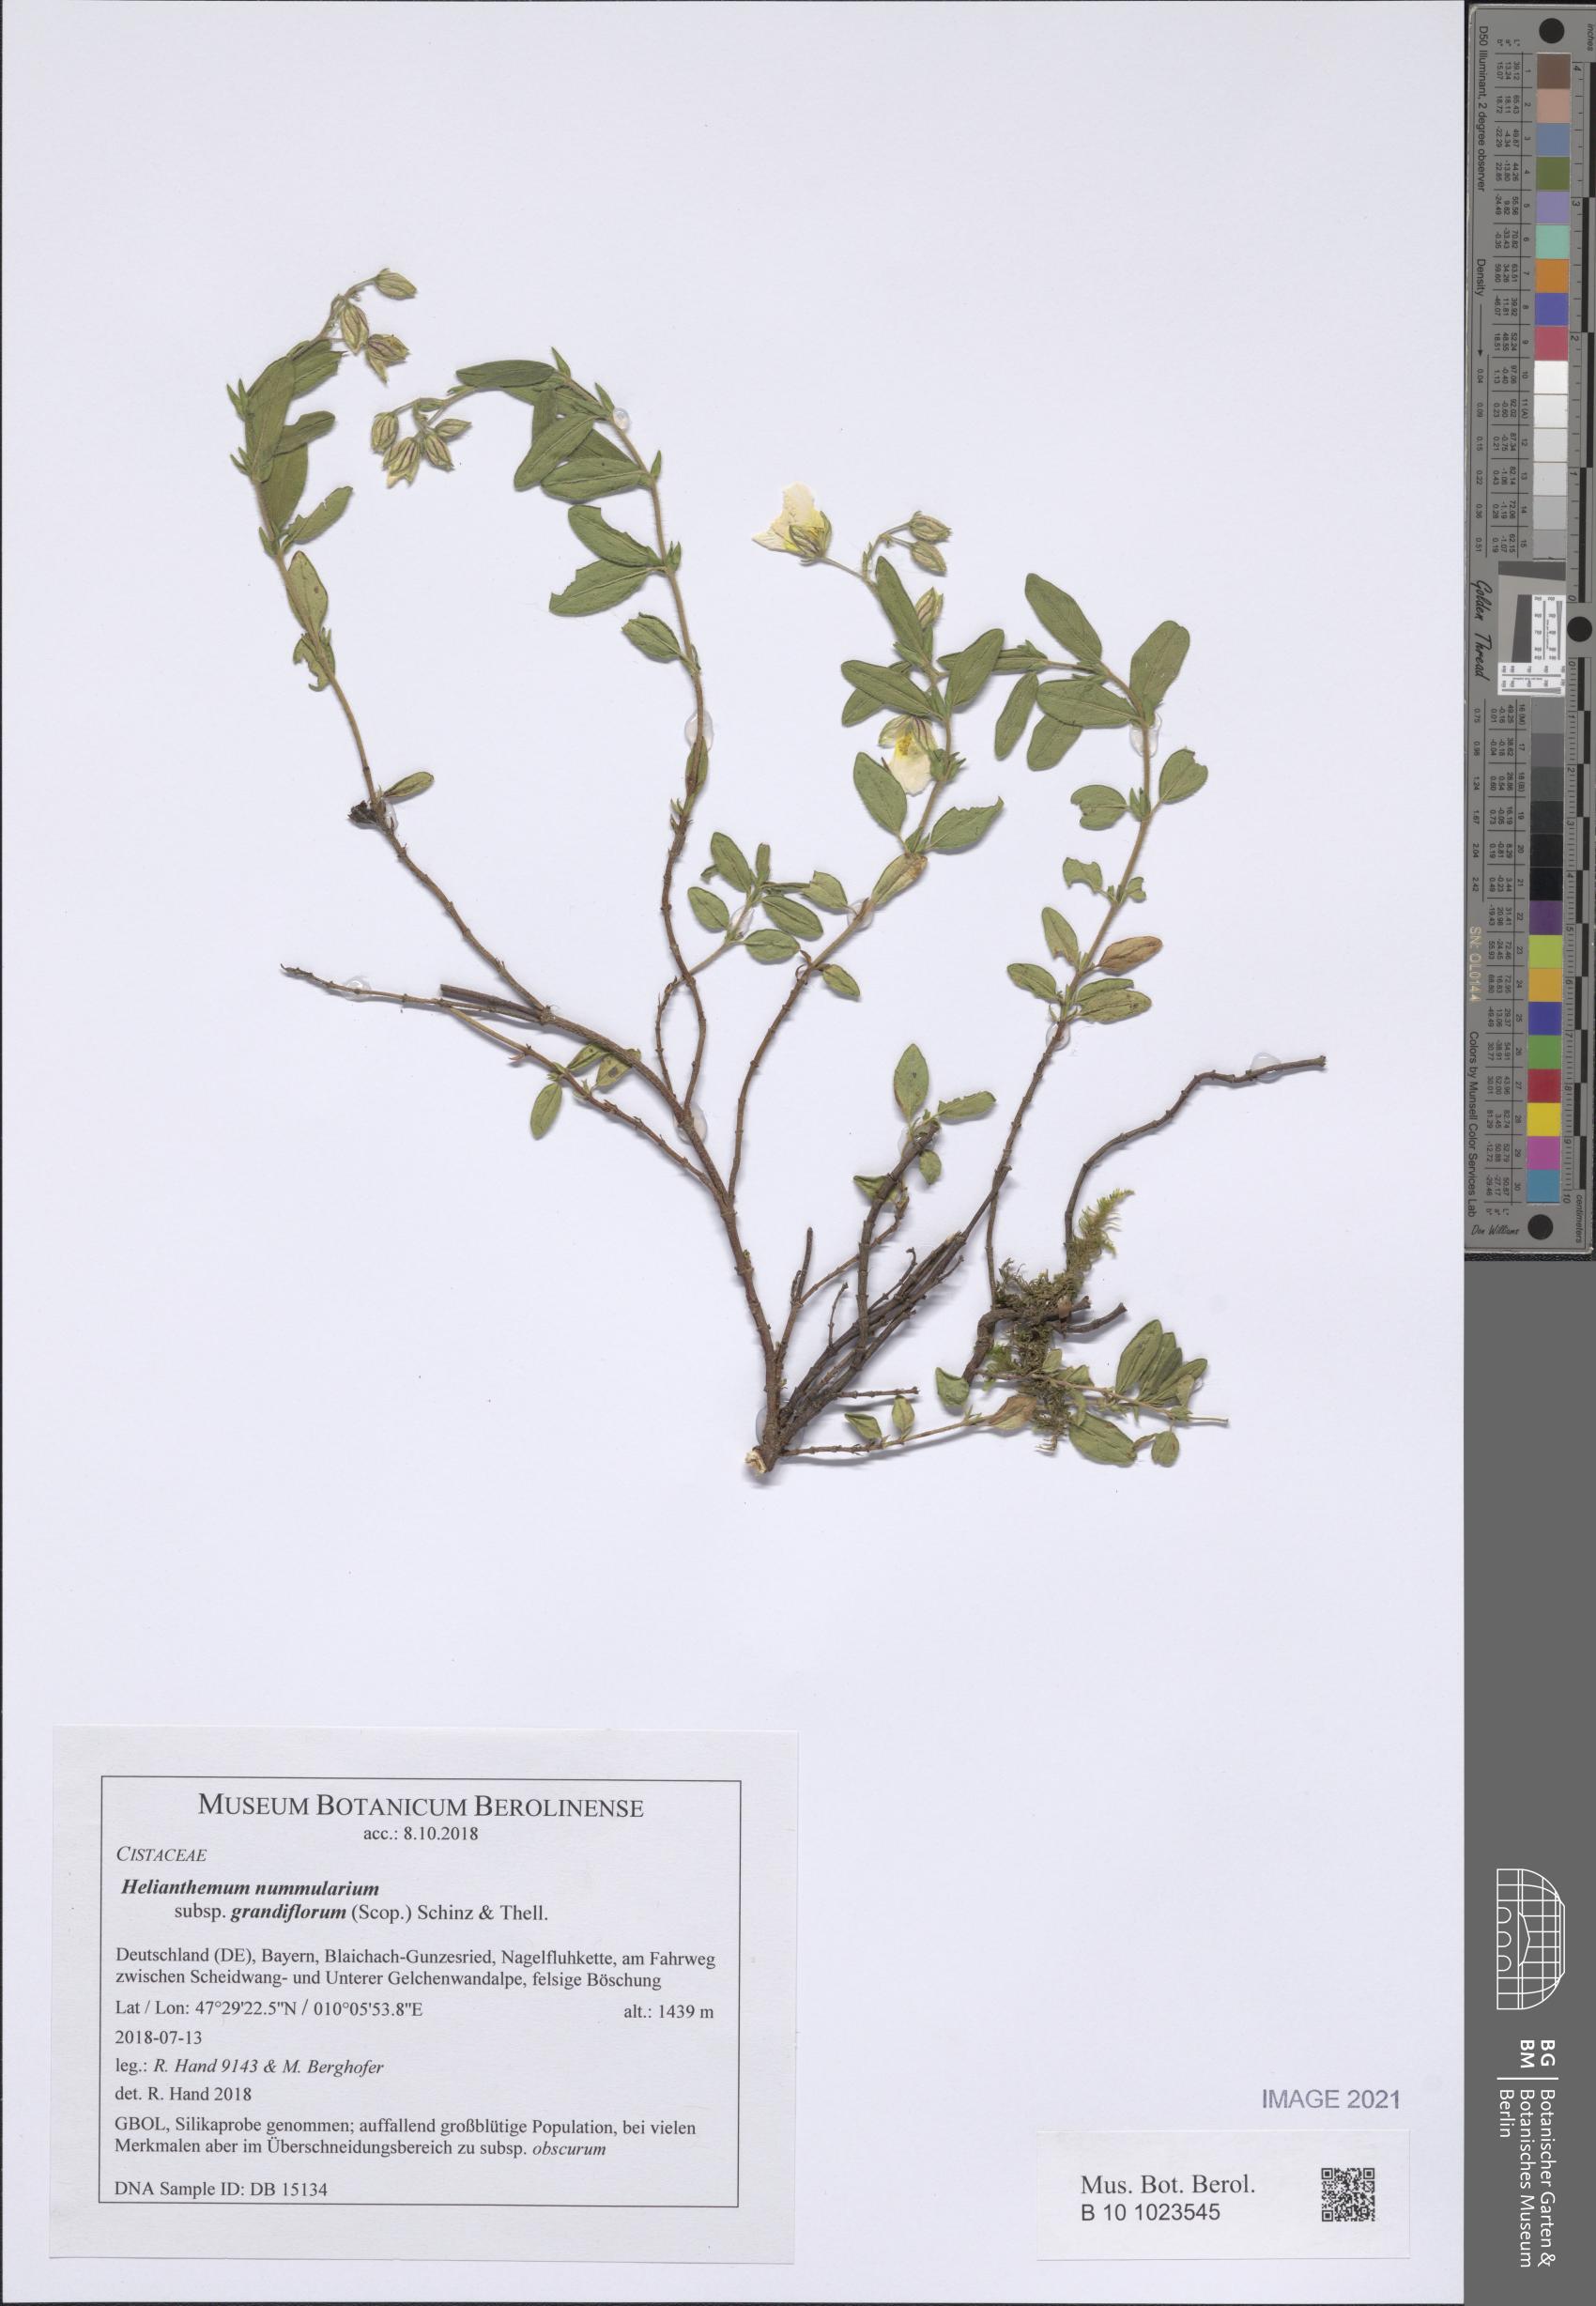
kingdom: Plantae
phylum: Tracheophyta
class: Magnoliopsida
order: Malvales
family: Cistaceae
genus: Helianthemum
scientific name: Helianthemum nummularium
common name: Common rock-rose
